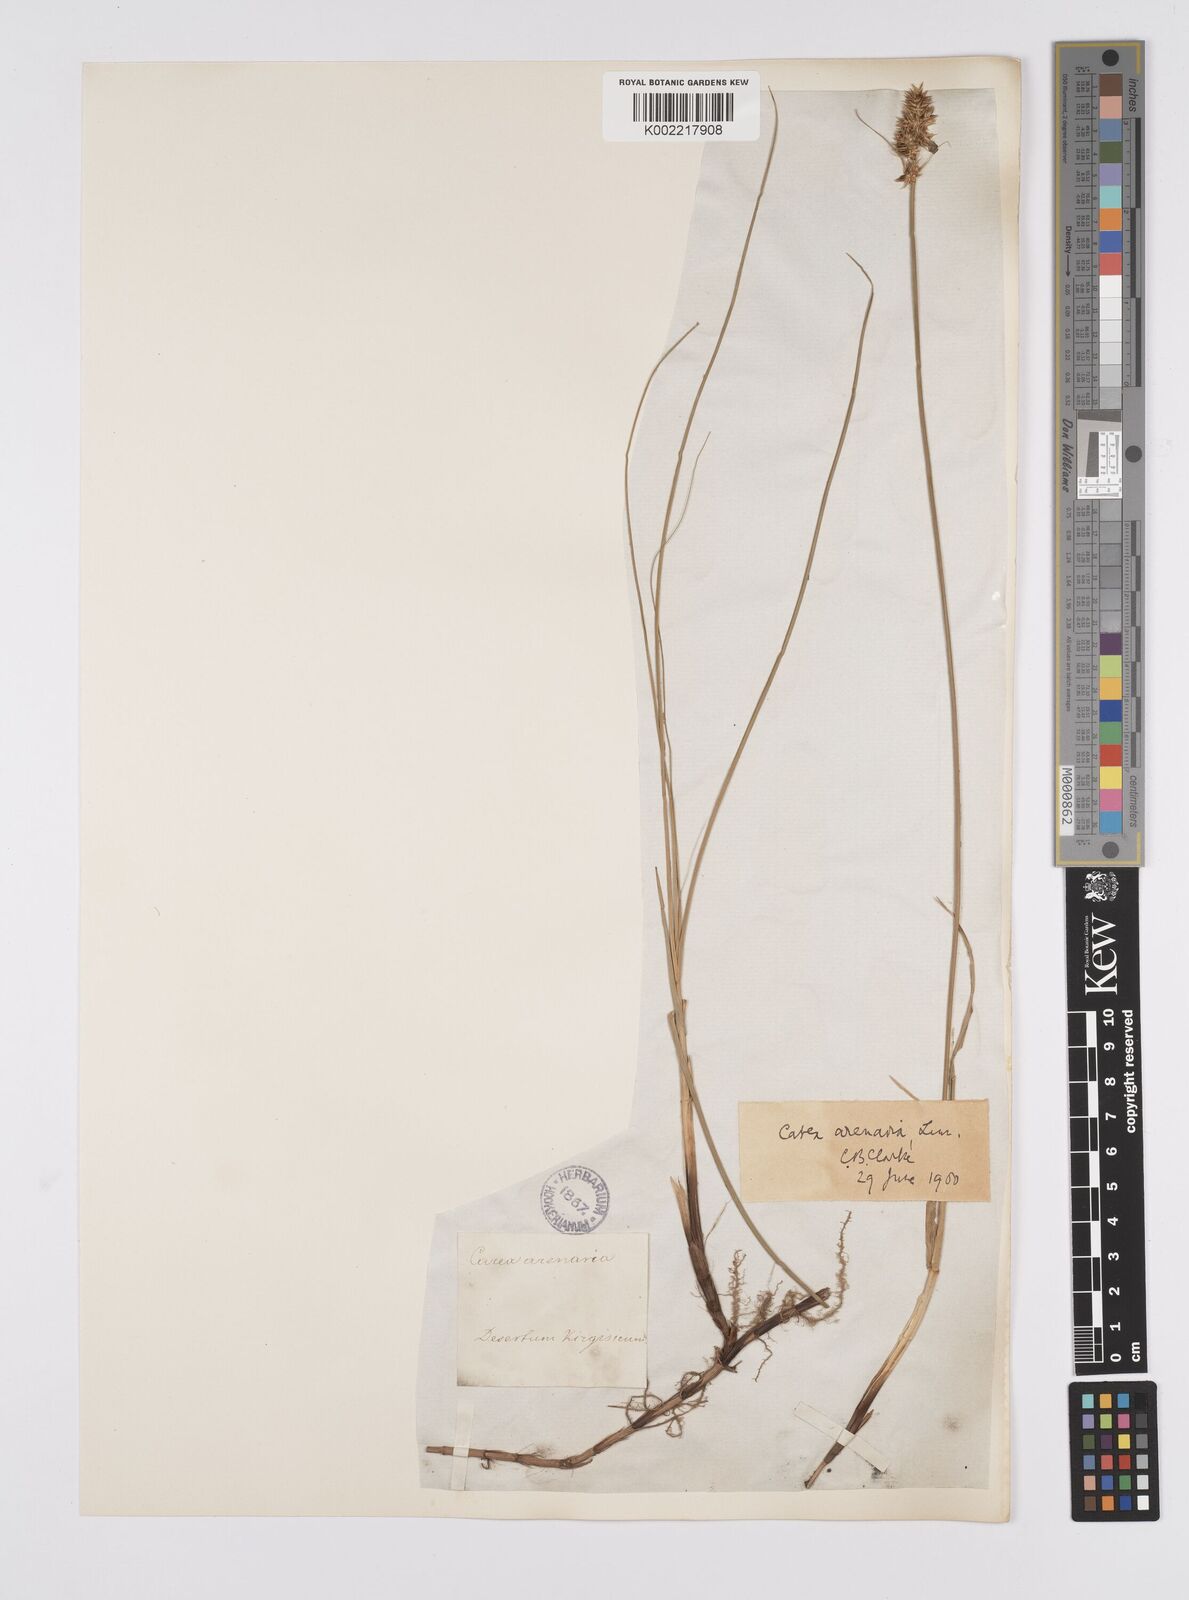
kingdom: Plantae
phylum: Tracheophyta
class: Liliopsida
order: Poales
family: Cyperaceae
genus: Carex
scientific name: Carex arenaria
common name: Sand sedge
